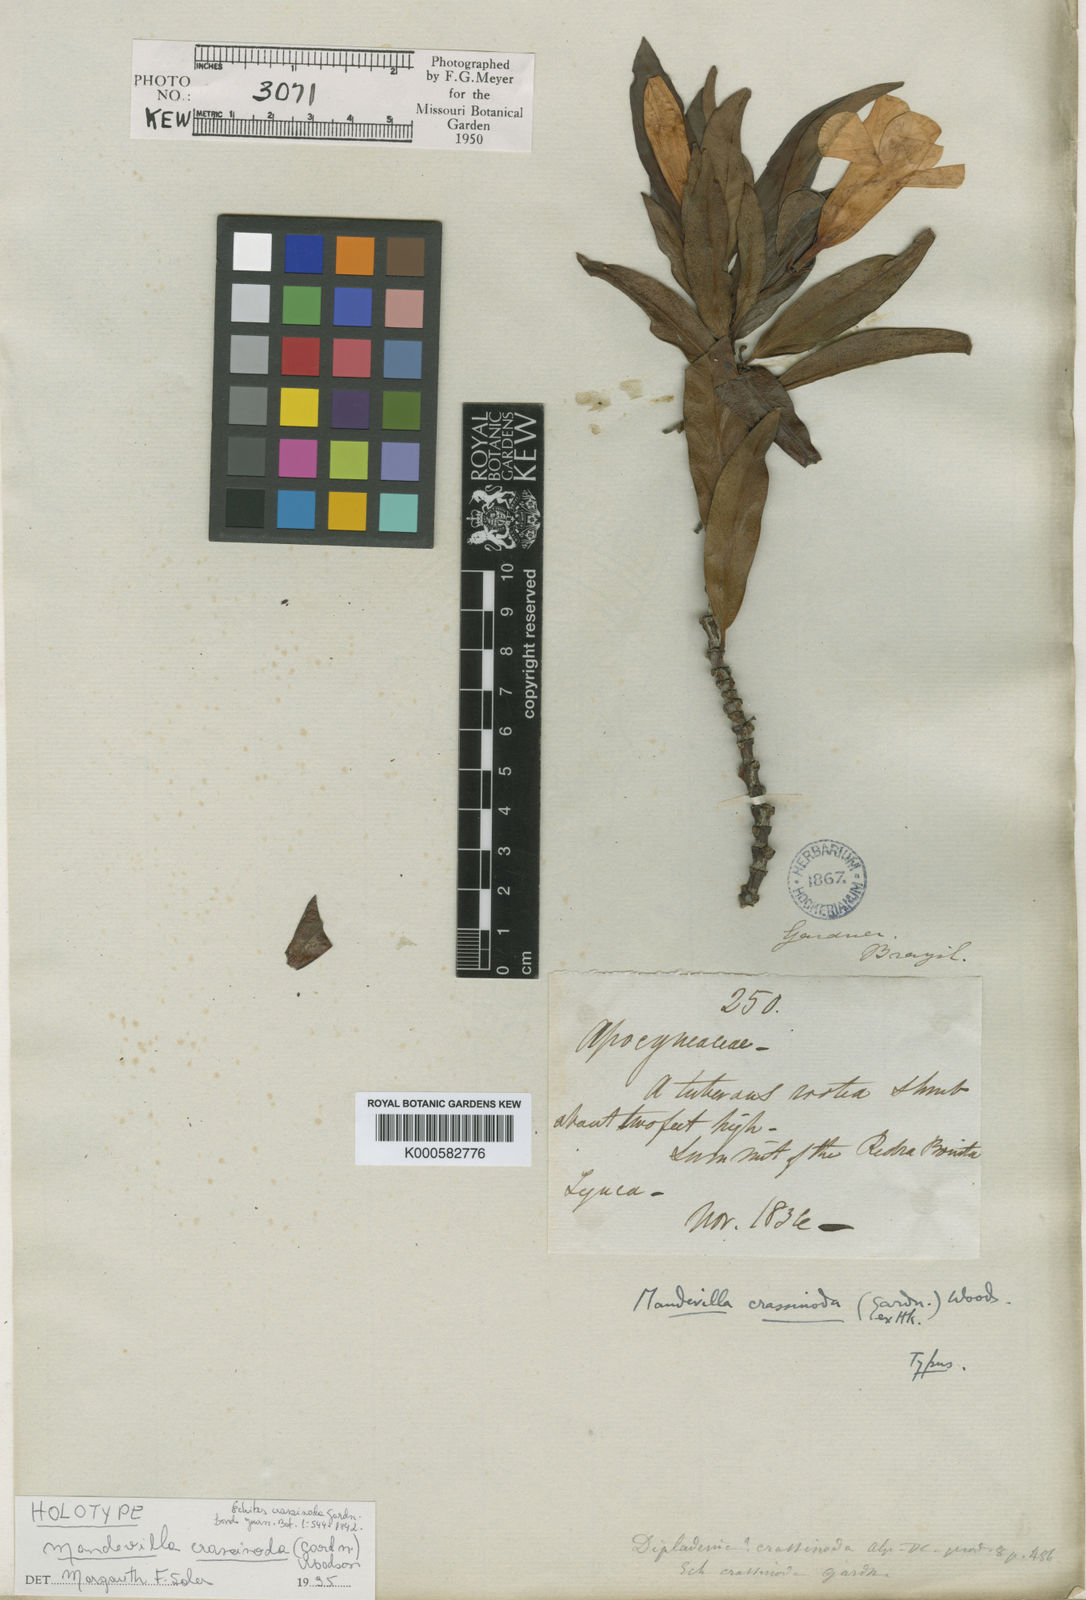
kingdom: Plantae
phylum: Tracheophyta
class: Magnoliopsida
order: Gentianales
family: Apocynaceae
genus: Mandevilla
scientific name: Mandevilla crassinoda
